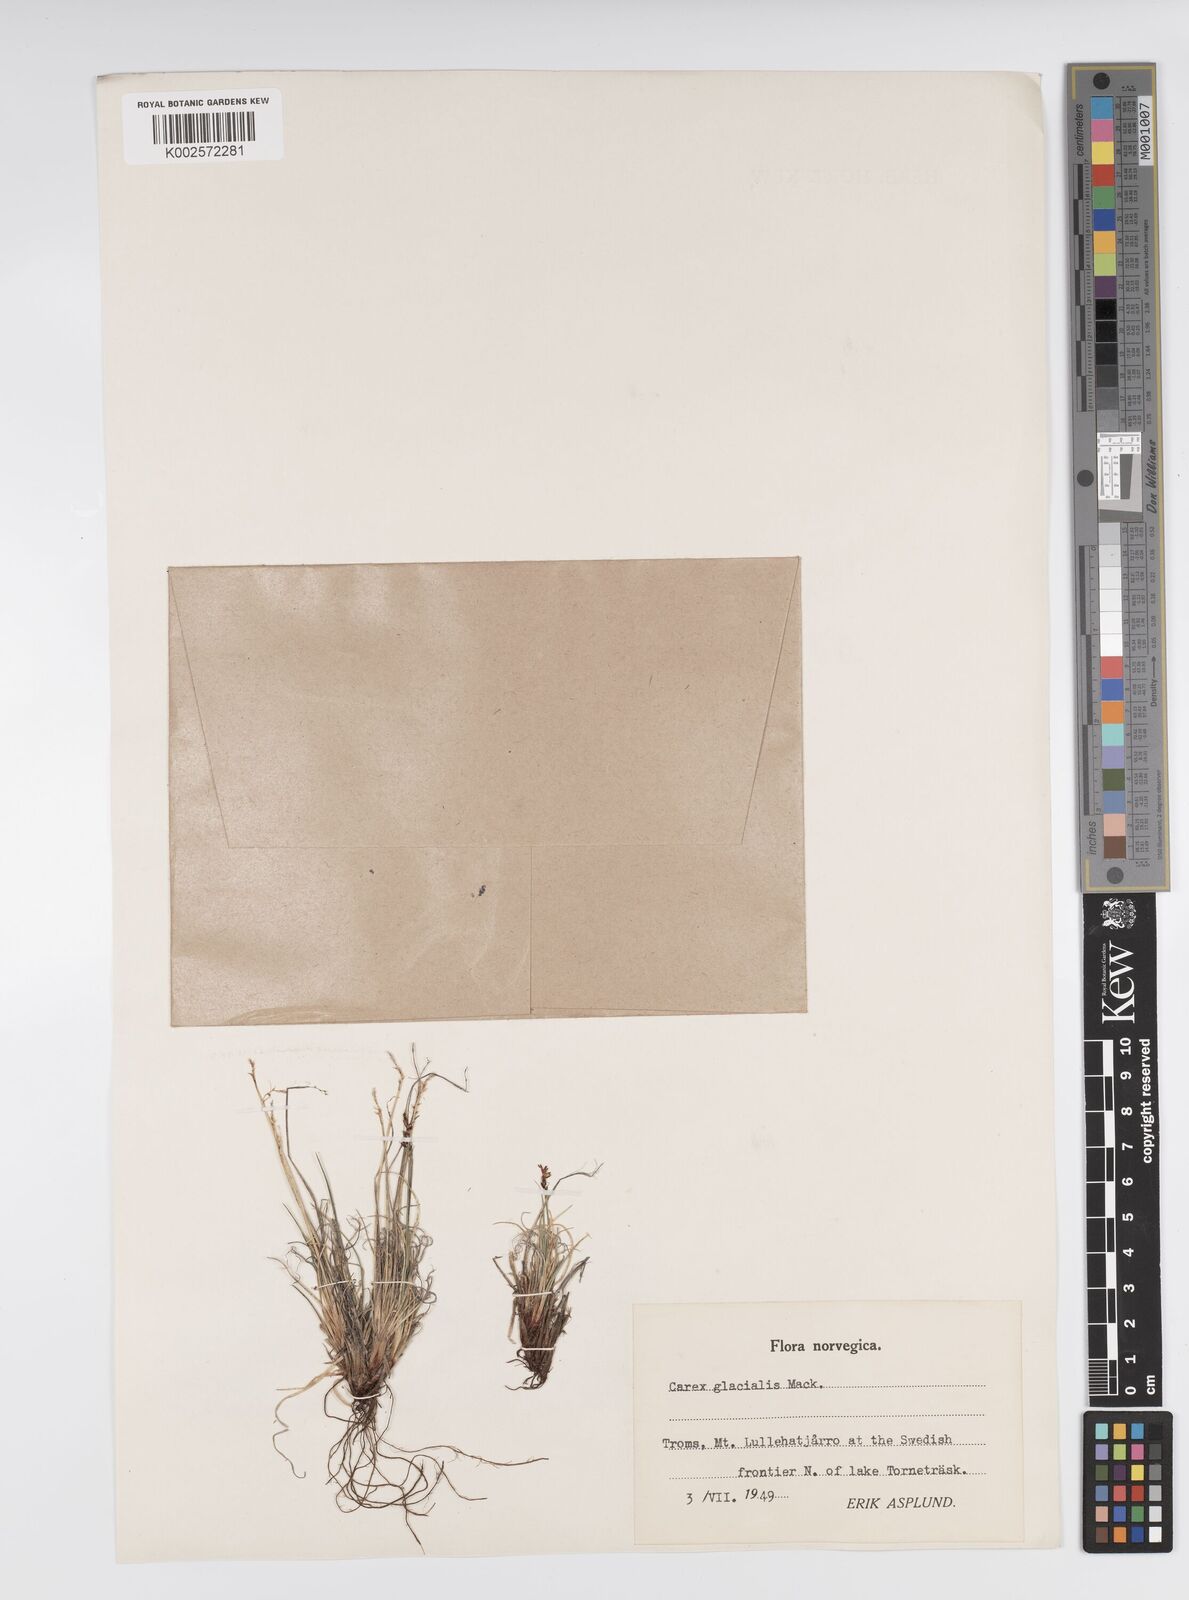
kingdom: Plantae
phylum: Tracheophyta
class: Liliopsida
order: Poales
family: Cyperaceae
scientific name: Cyperaceae
